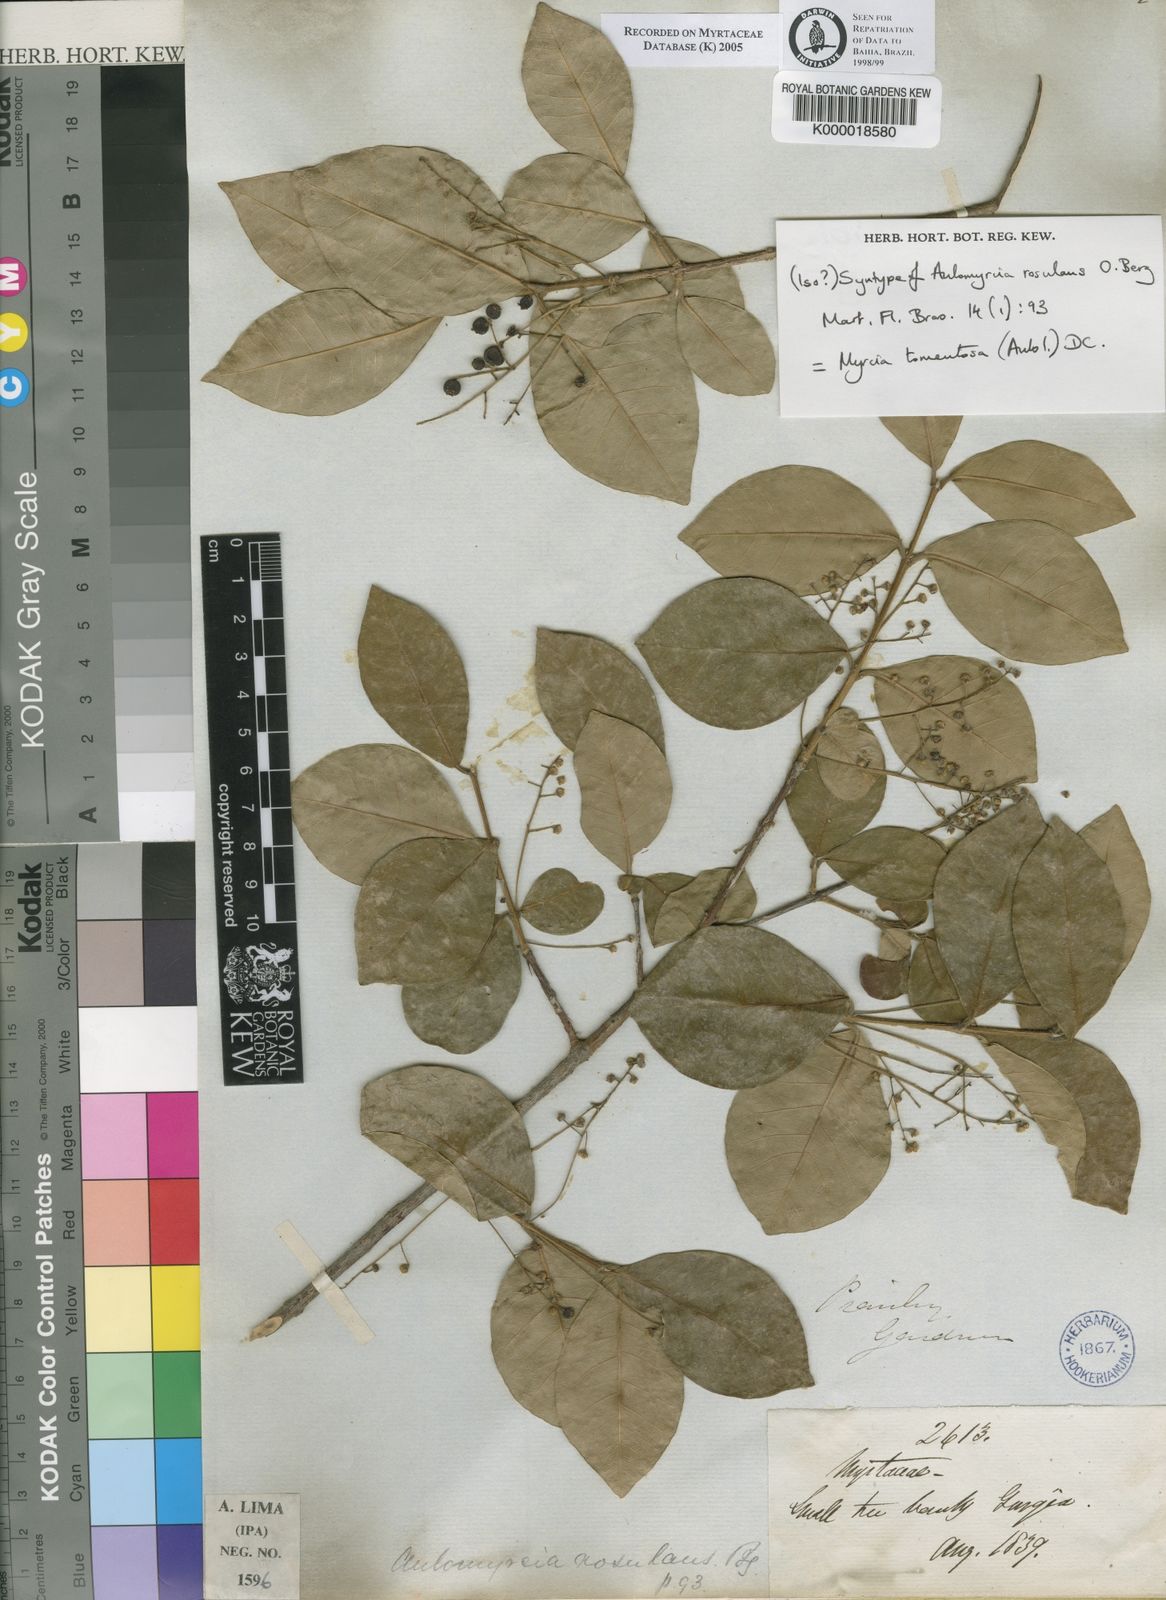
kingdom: Plantae
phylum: Tracheophyta
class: Magnoliopsida
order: Myrtales
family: Myrtaceae
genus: Myrcia
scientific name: Myrcia tomentosa
